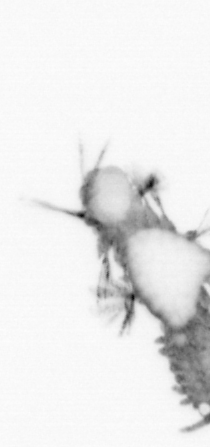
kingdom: Animalia
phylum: Annelida
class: Polychaeta
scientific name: Polychaeta
